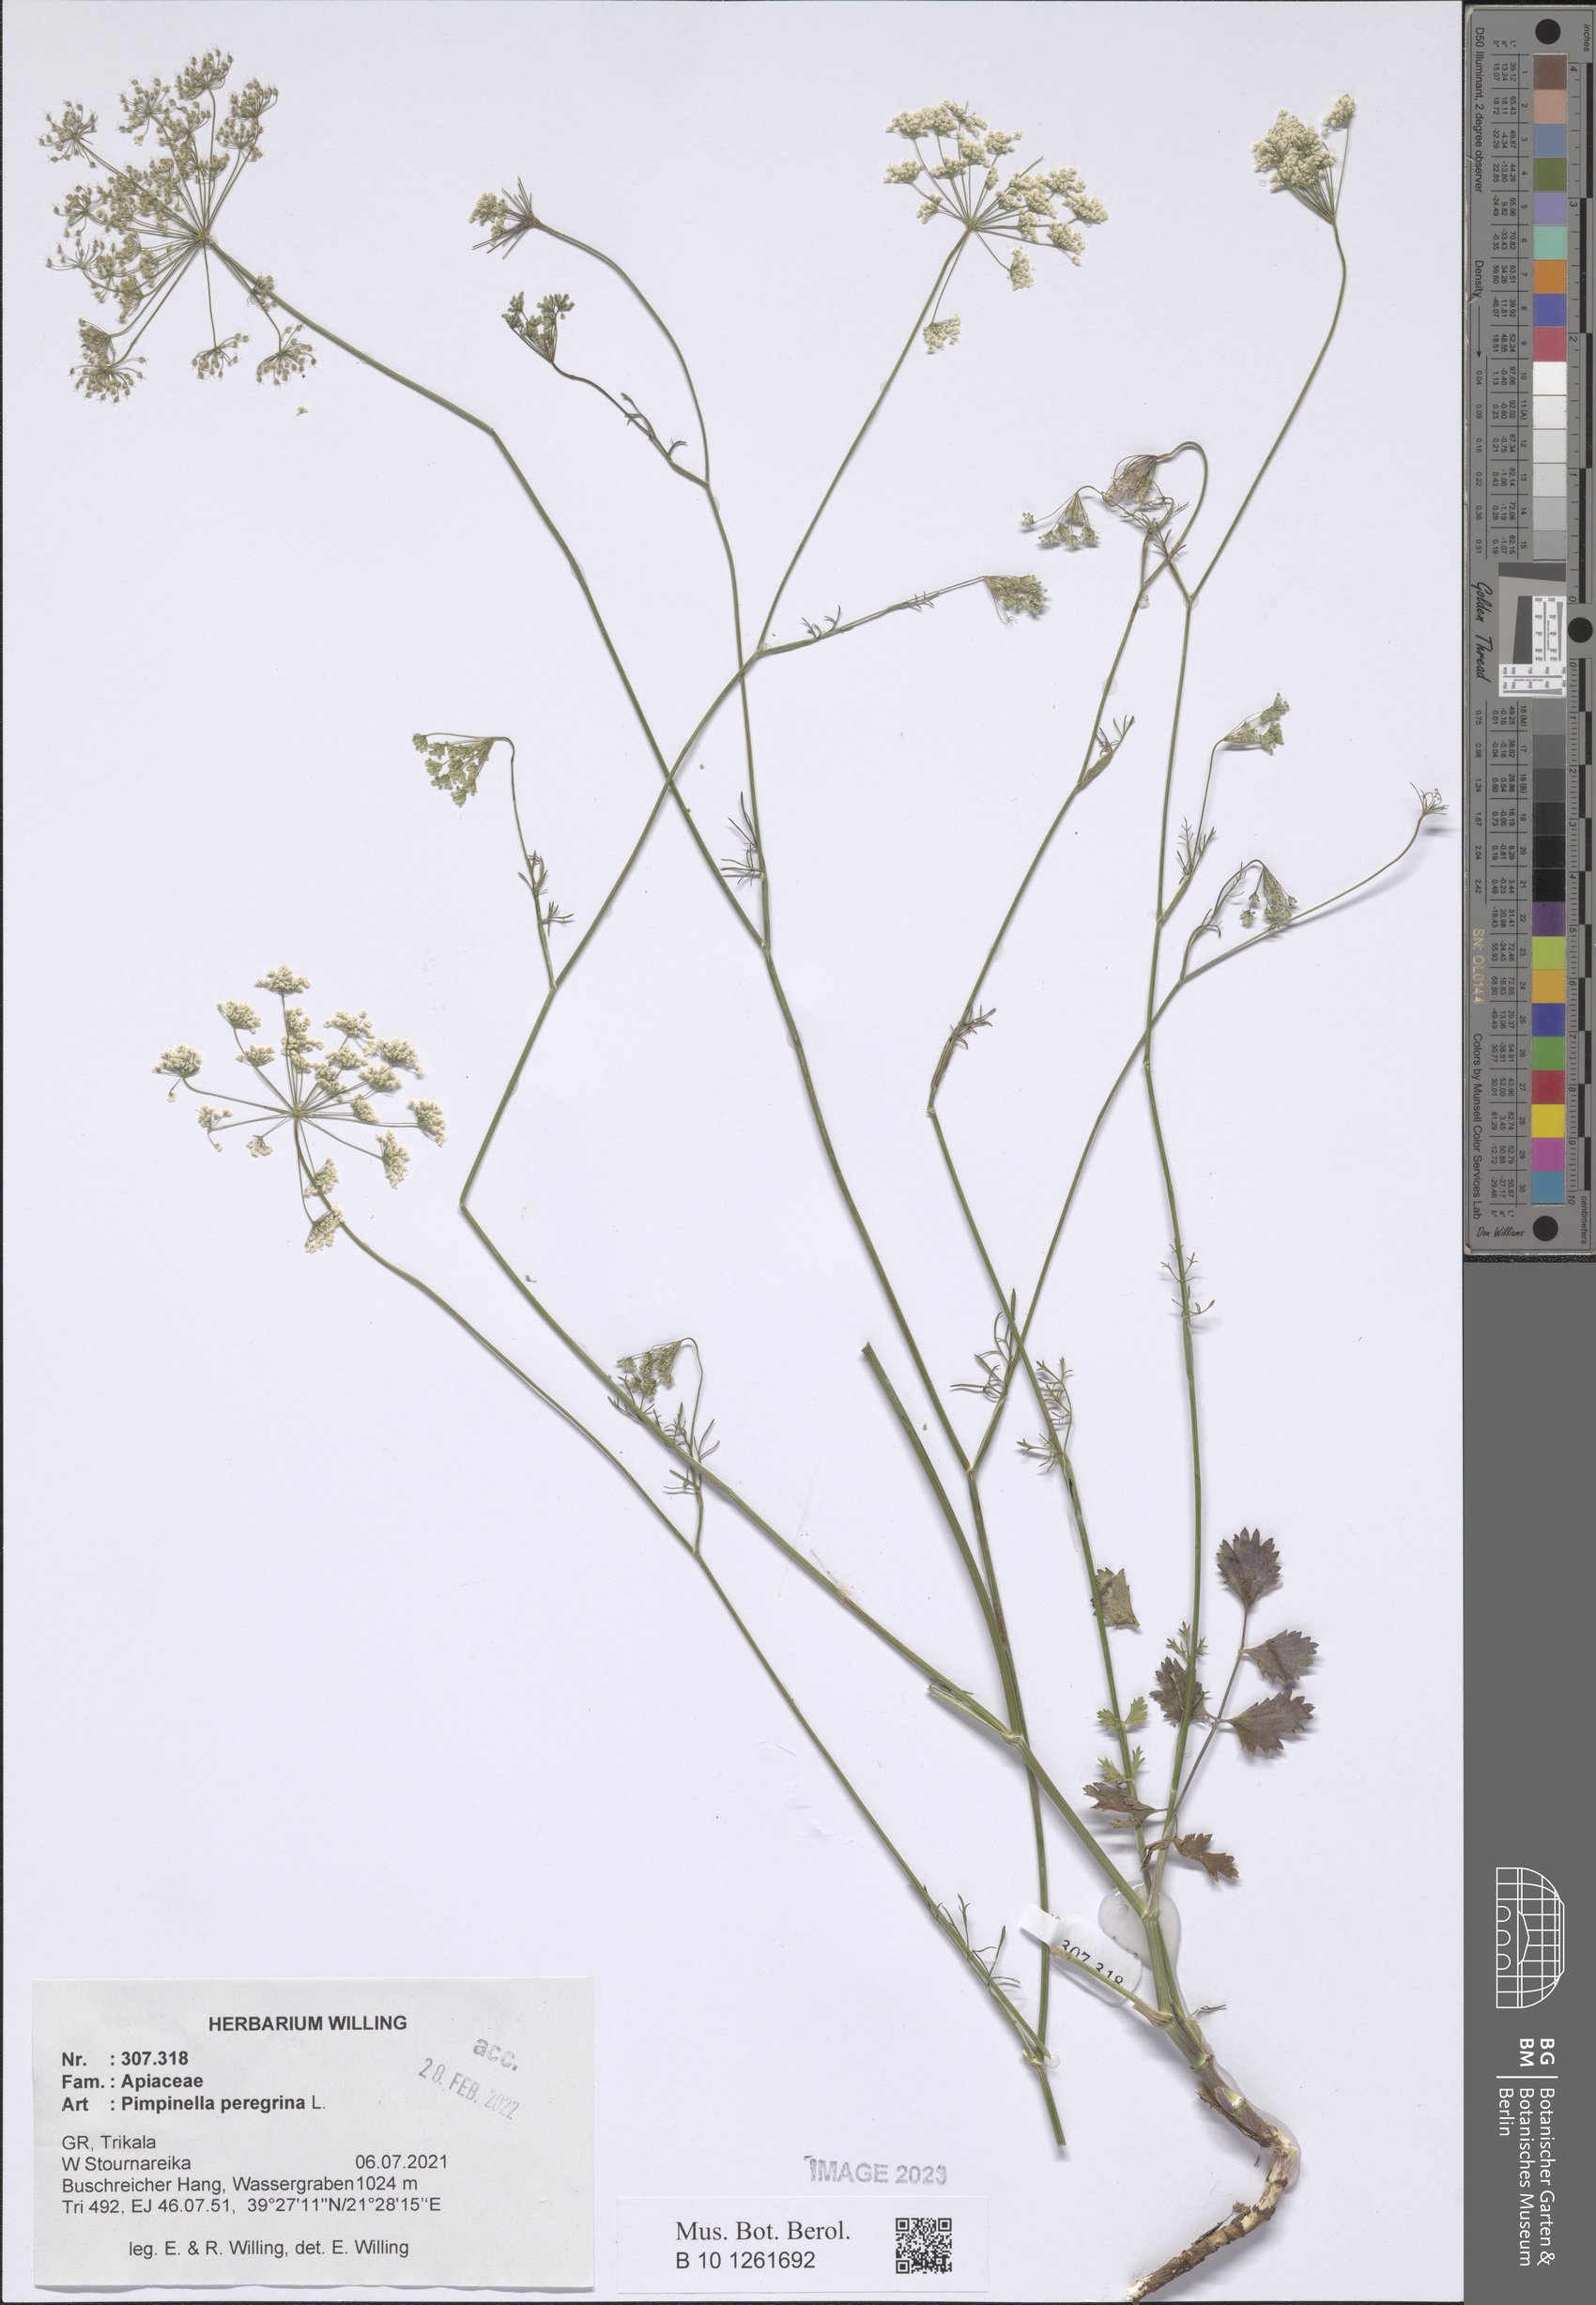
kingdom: Plantae
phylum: Tracheophyta
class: Magnoliopsida
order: Apiales
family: Apiaceae
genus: Pimpinella
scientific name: Pimpinella peregrina
